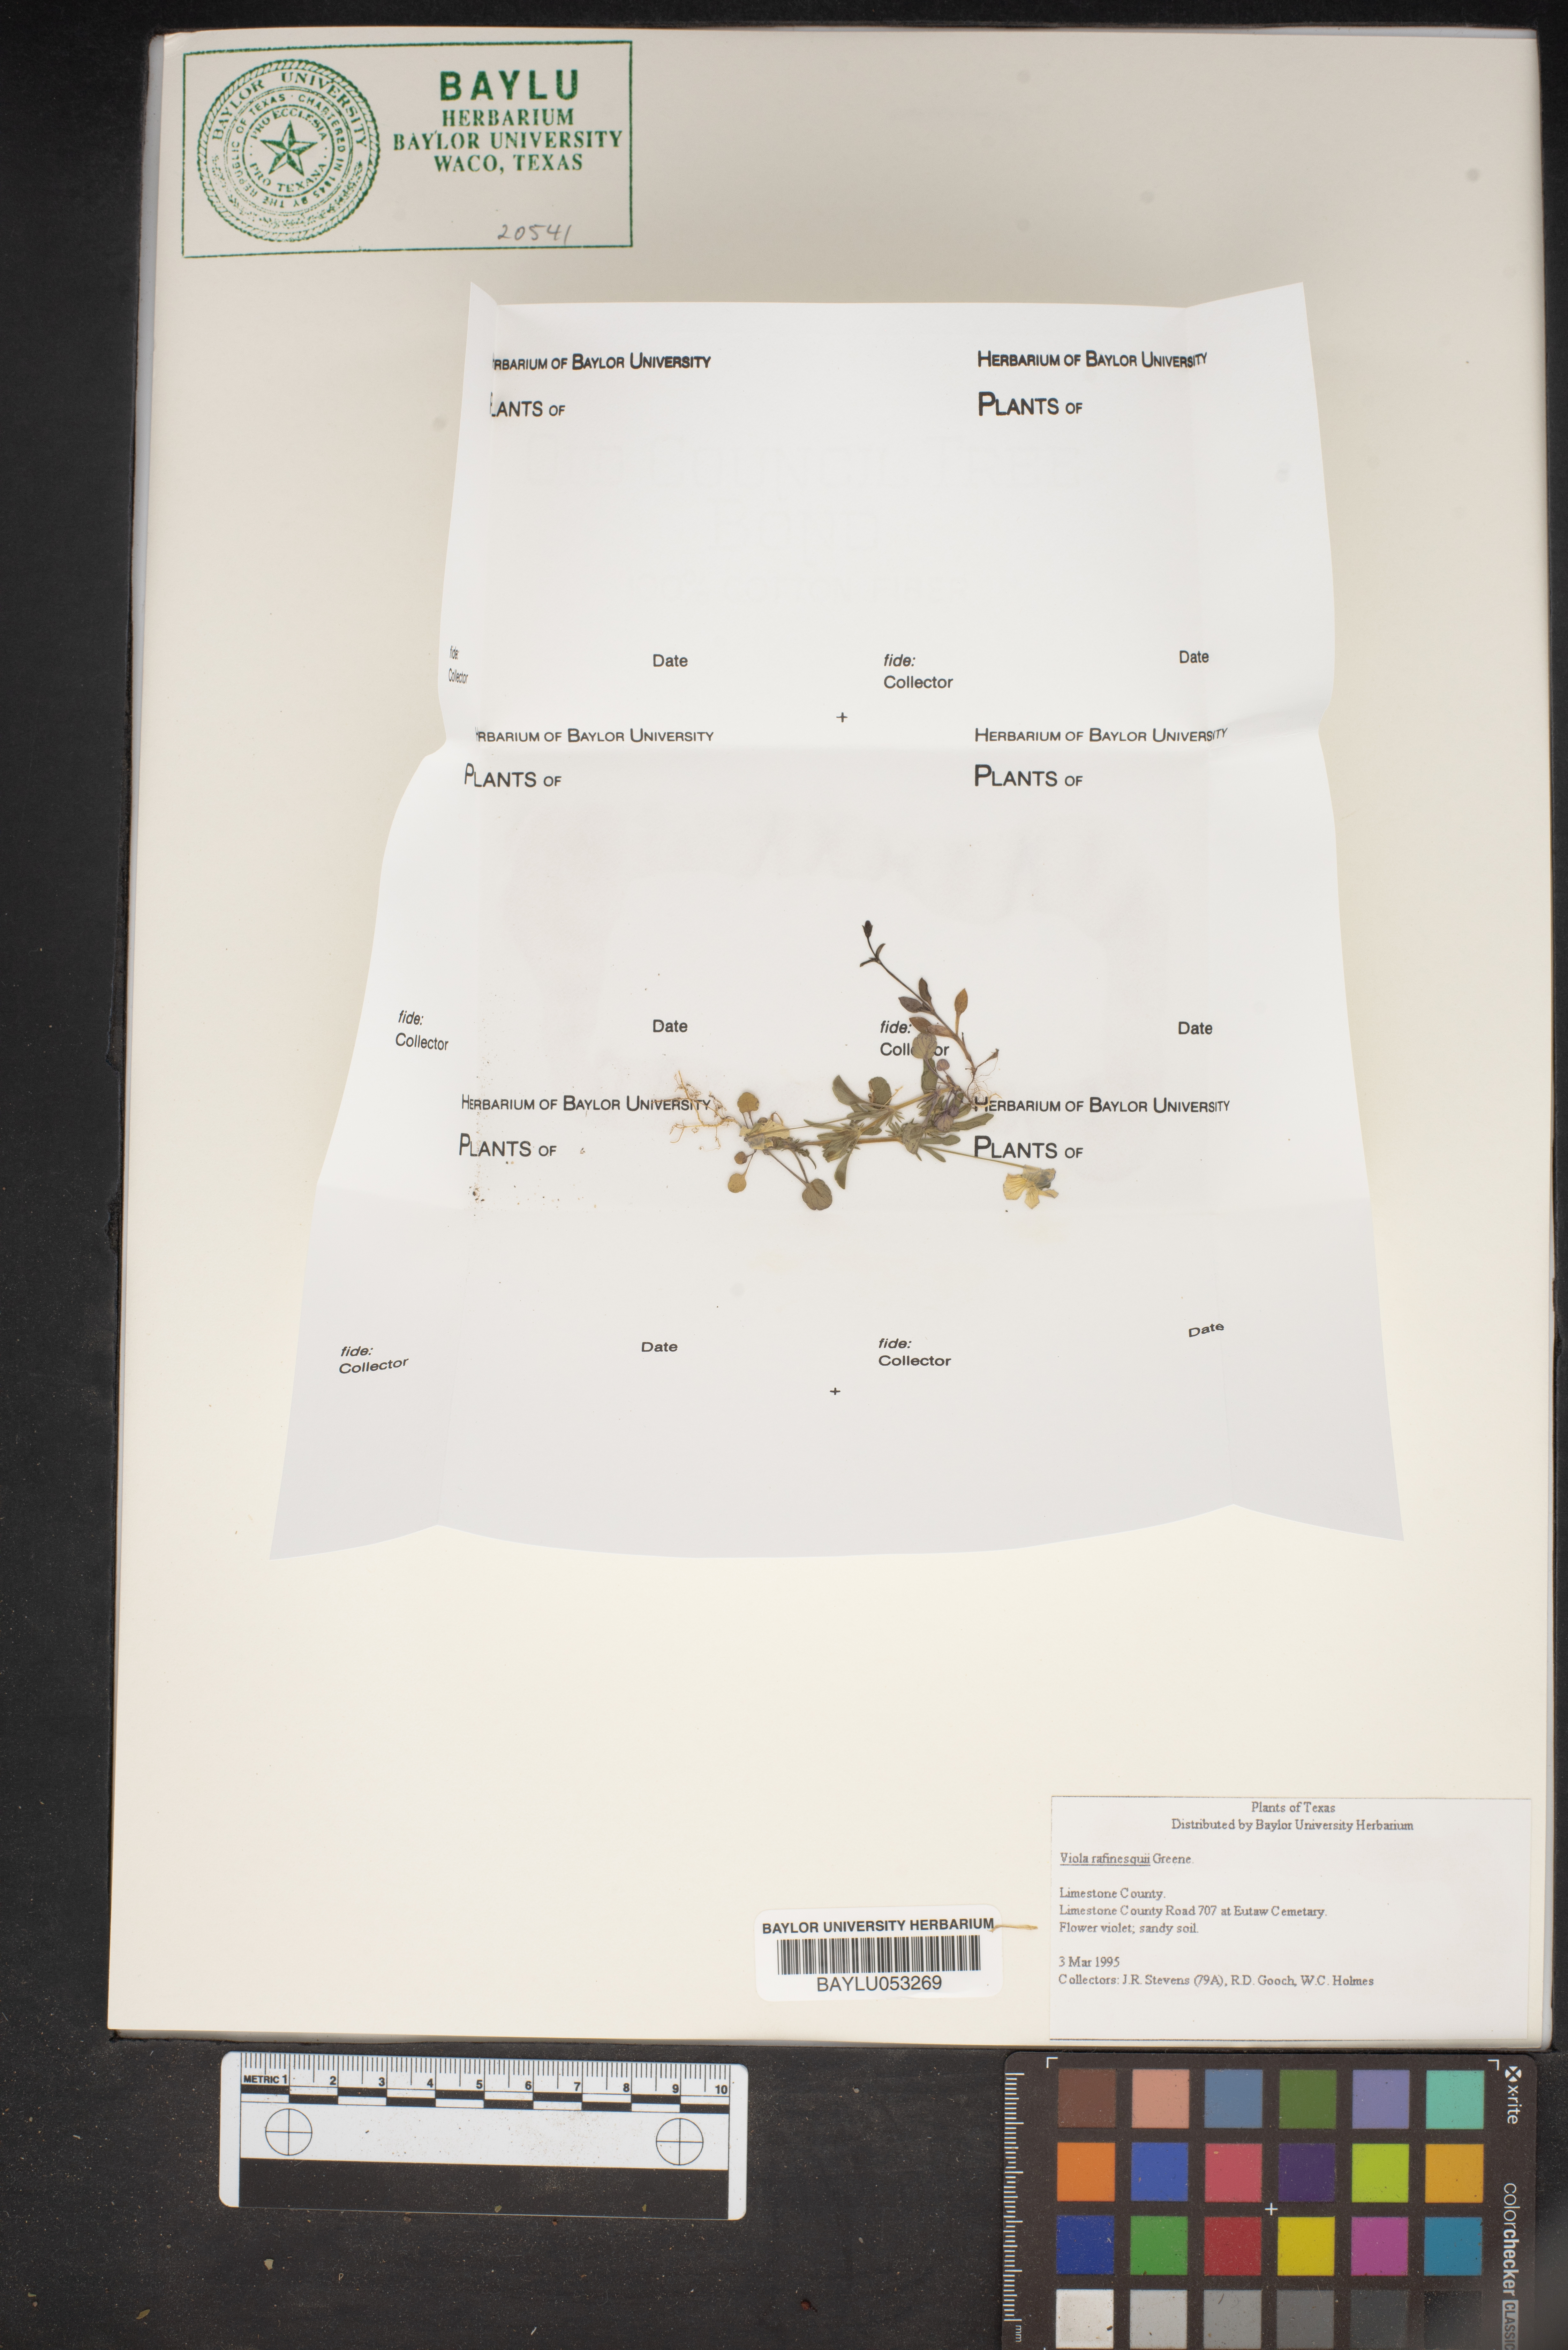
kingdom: Plantae
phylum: Tracheophyta
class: Magnoliopsida
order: Malpighiales
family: Violaceae
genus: Viola
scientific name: Viola rafinesquei
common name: American field pansy
